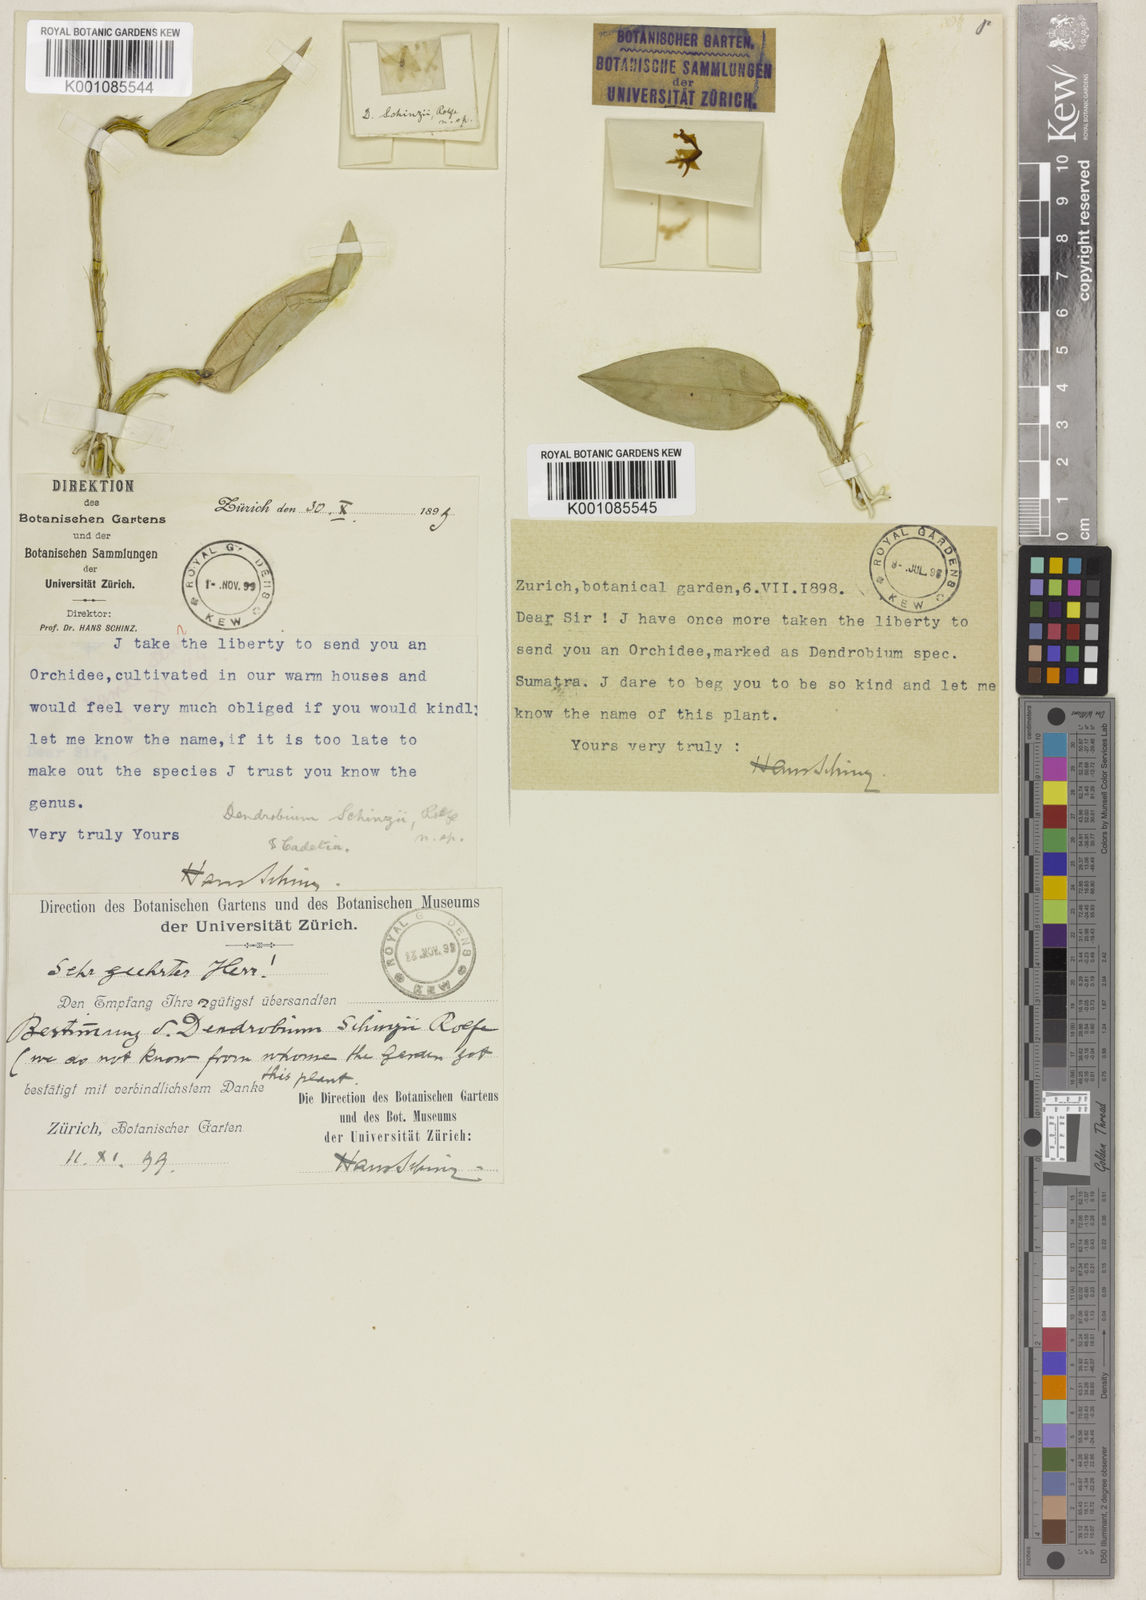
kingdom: Plantae
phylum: Tracheophyta
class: Liliopsida
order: Asparagales
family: Orchidaceae
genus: Dendrobium
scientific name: Dendrobium schinzii
